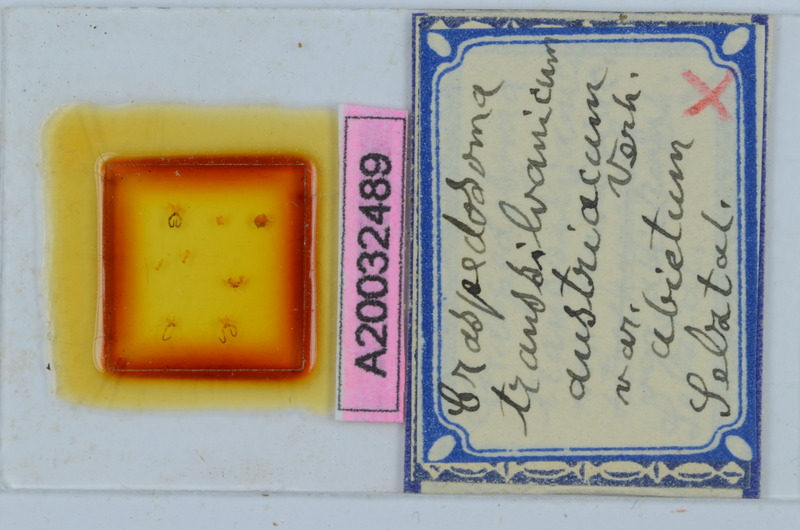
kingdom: Animalia
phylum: Arthropoda
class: Diplopoda
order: Chordeumatida
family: Craspedosomatidae
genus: Craspedosoma
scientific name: Craspedosoma rawlinsii
